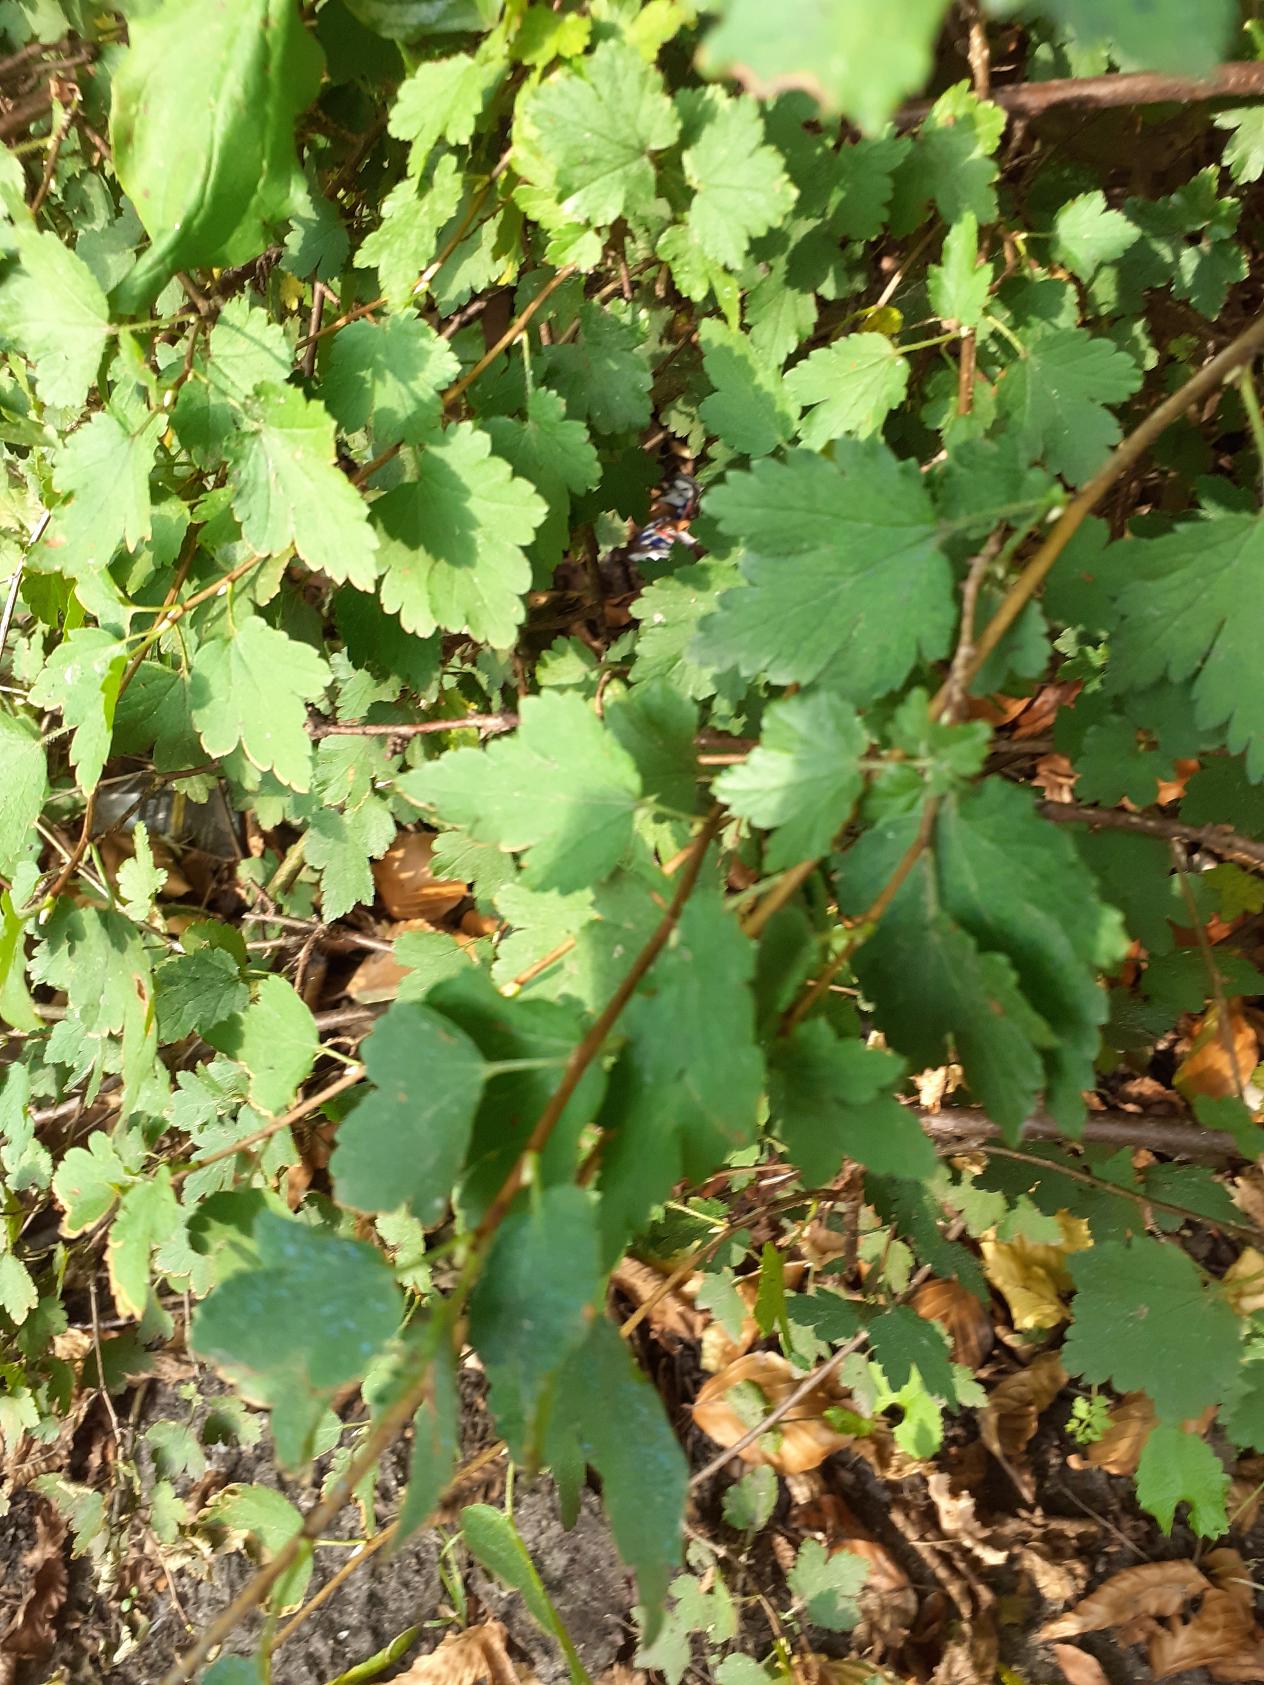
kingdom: Plantae
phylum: Tracheophyta
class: Magnoliopsida
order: Saxifragales
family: Grossulariaceae
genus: Ribes
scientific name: Ribes alpinum
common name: Fjeld-ribs
